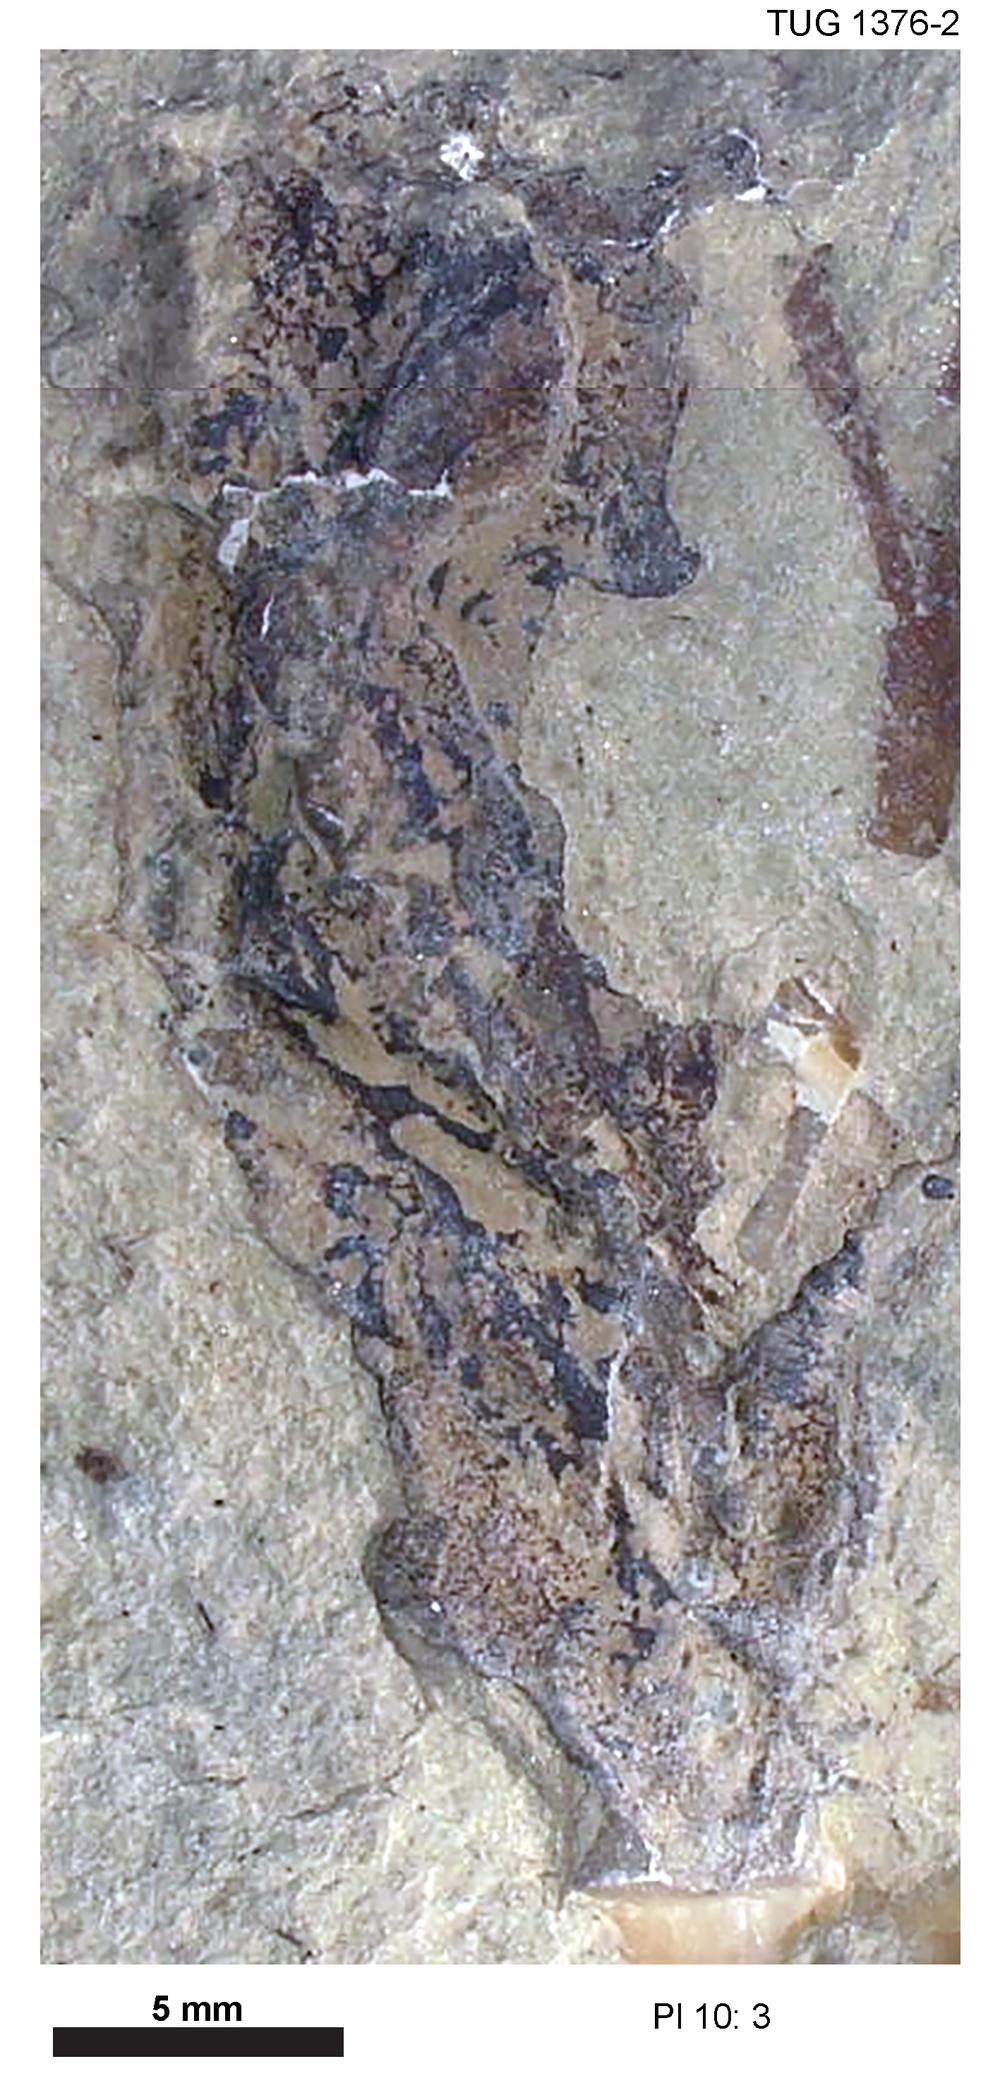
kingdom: Animalia
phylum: Echinodermata
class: Crinoidea
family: Dimerocrinitidae
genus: Oepikicrinus
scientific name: Oepikicrinus perensae
